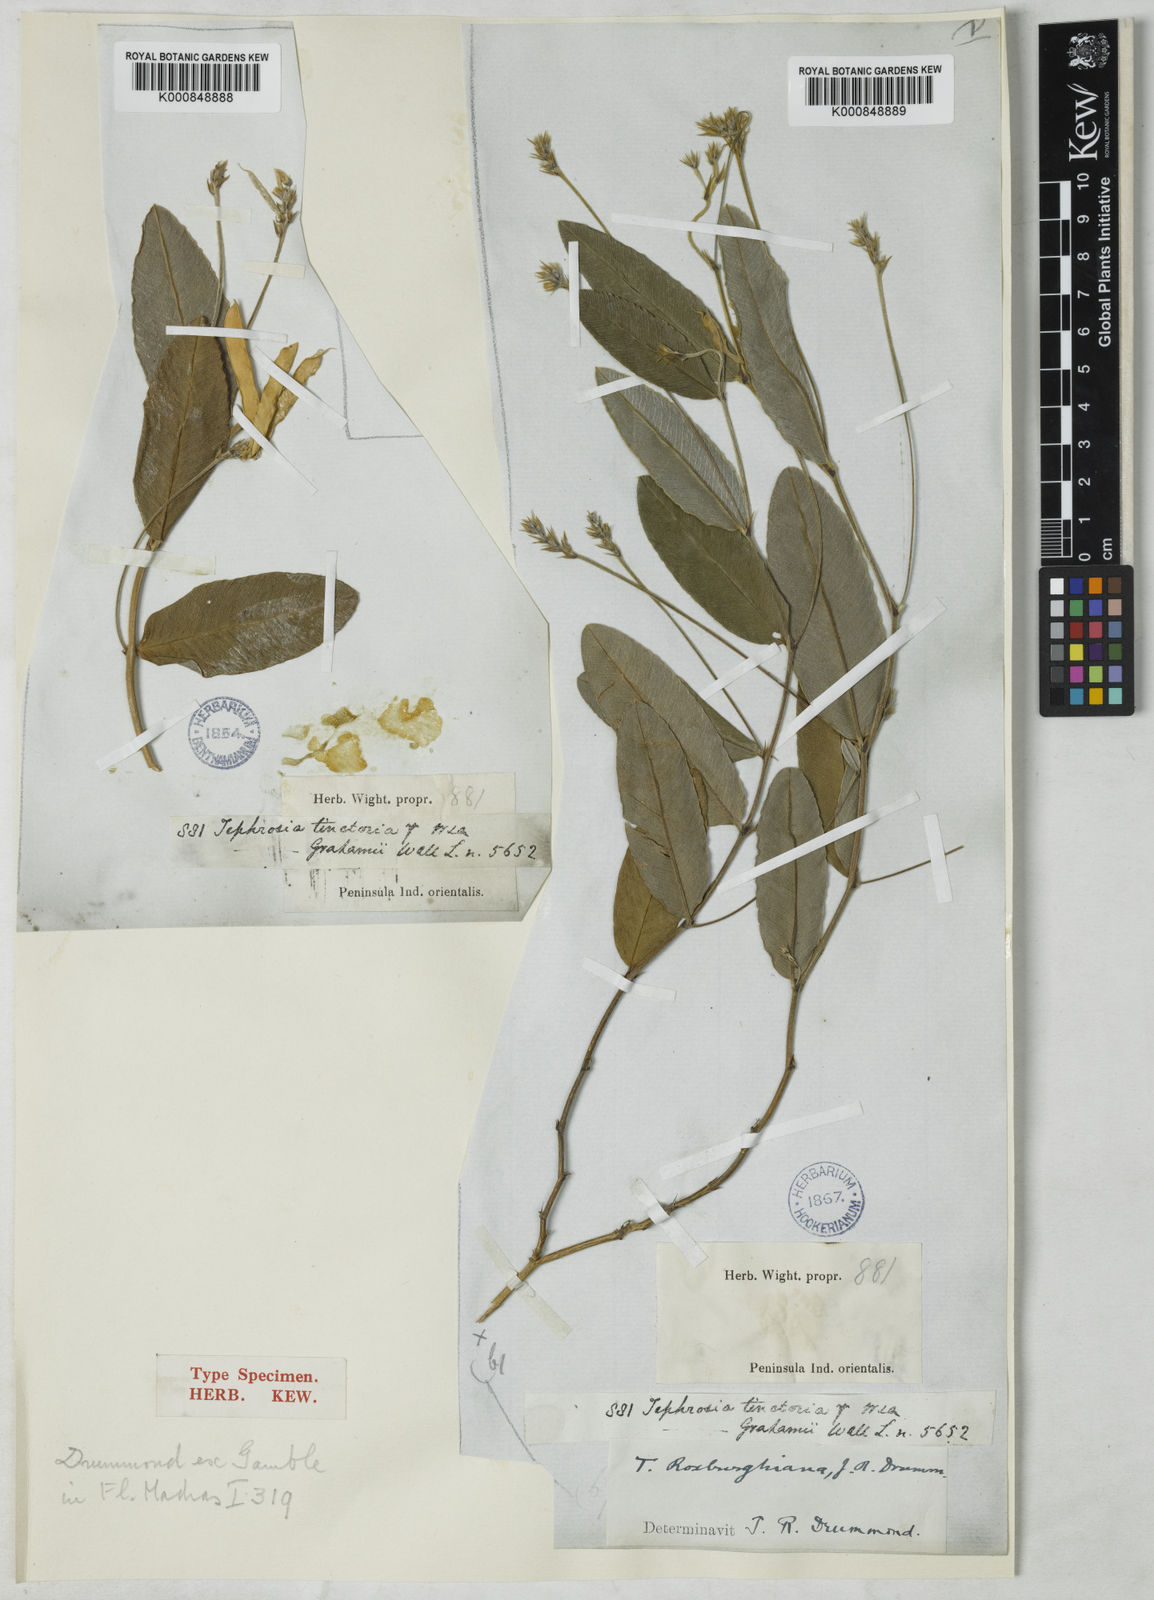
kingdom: Plantae
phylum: Tracheophyta
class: Magnoliopsida
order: Fabales
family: Fabaceae
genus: Tephrosia
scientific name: Tephrosia roxburghiana
